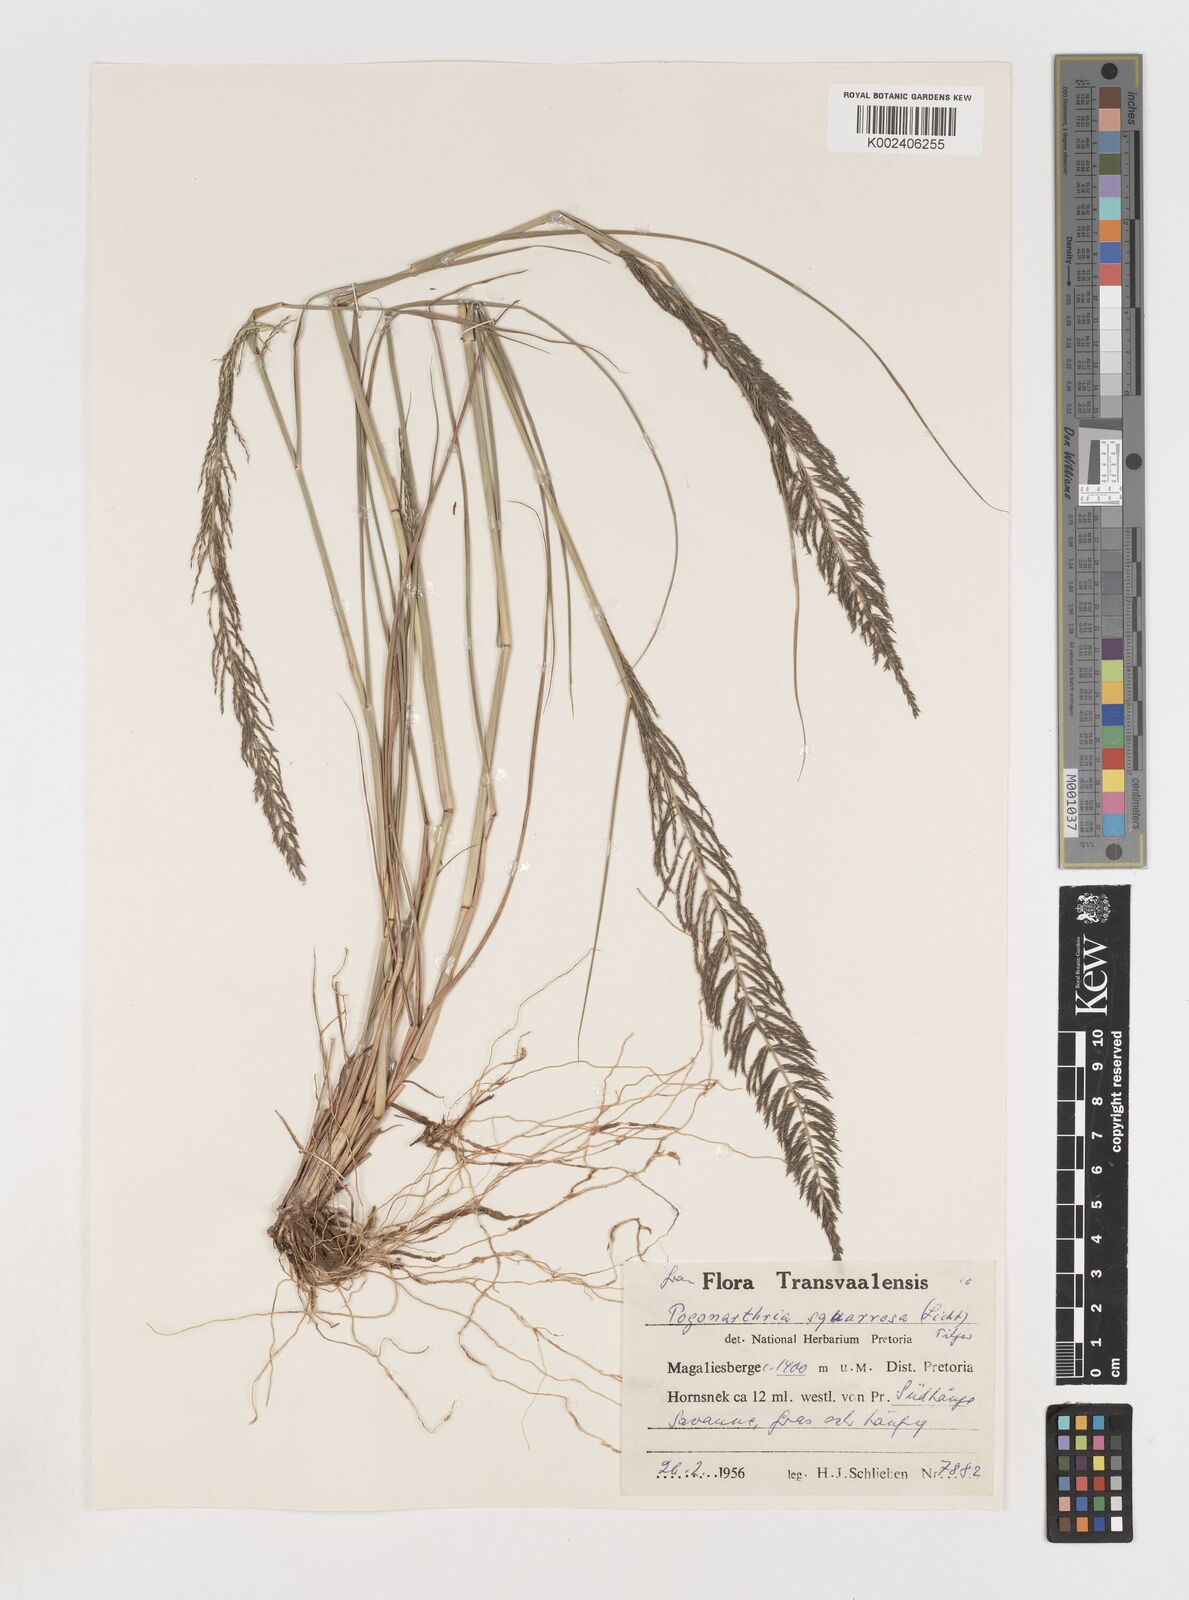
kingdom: Plantae
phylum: Tracheophyta
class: Liliopsida
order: Poales
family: Poaceae
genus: Pogonarthria
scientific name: Pogonarthria squarrosa
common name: Grass
